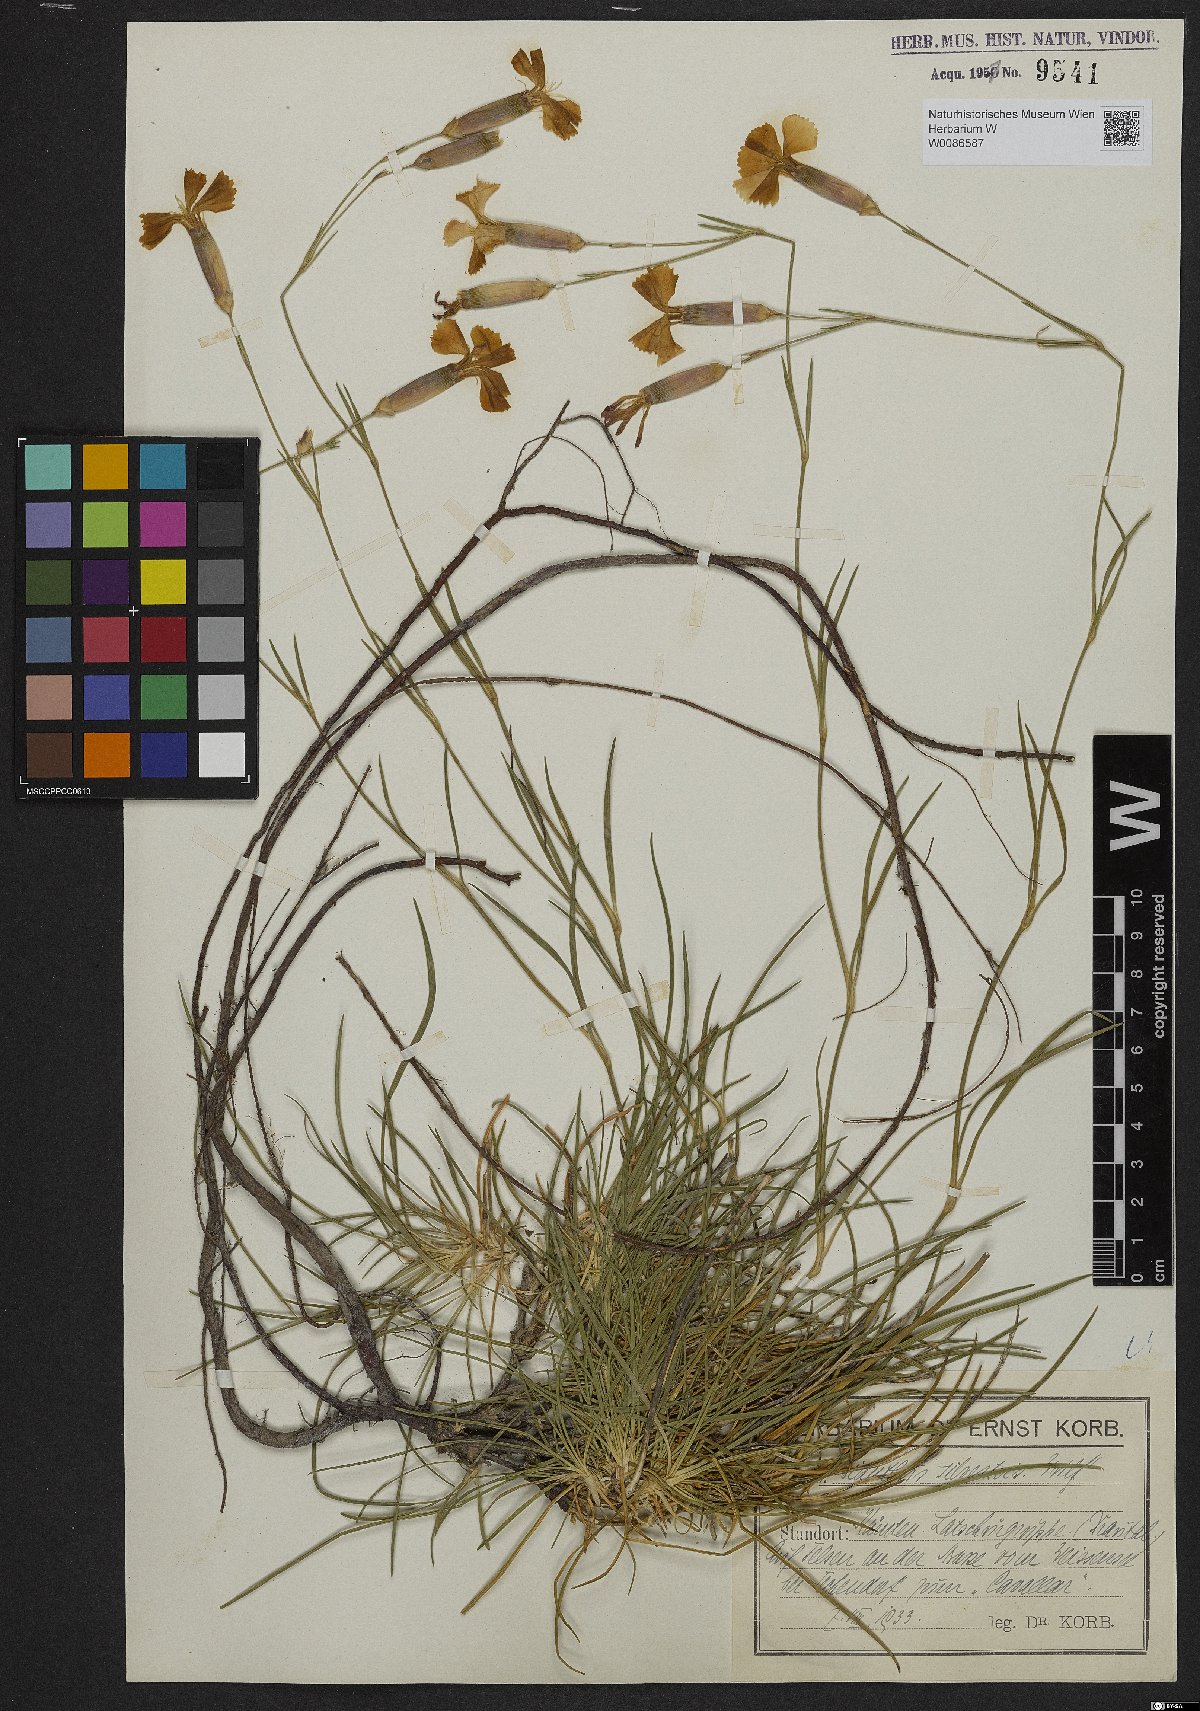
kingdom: Plantae
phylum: Tracheophyta
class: Magnoliopsida
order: Caryophyllales
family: Caryophyllaceae
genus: Dianthus
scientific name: Dianthus sylvestris
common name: Wood pink
